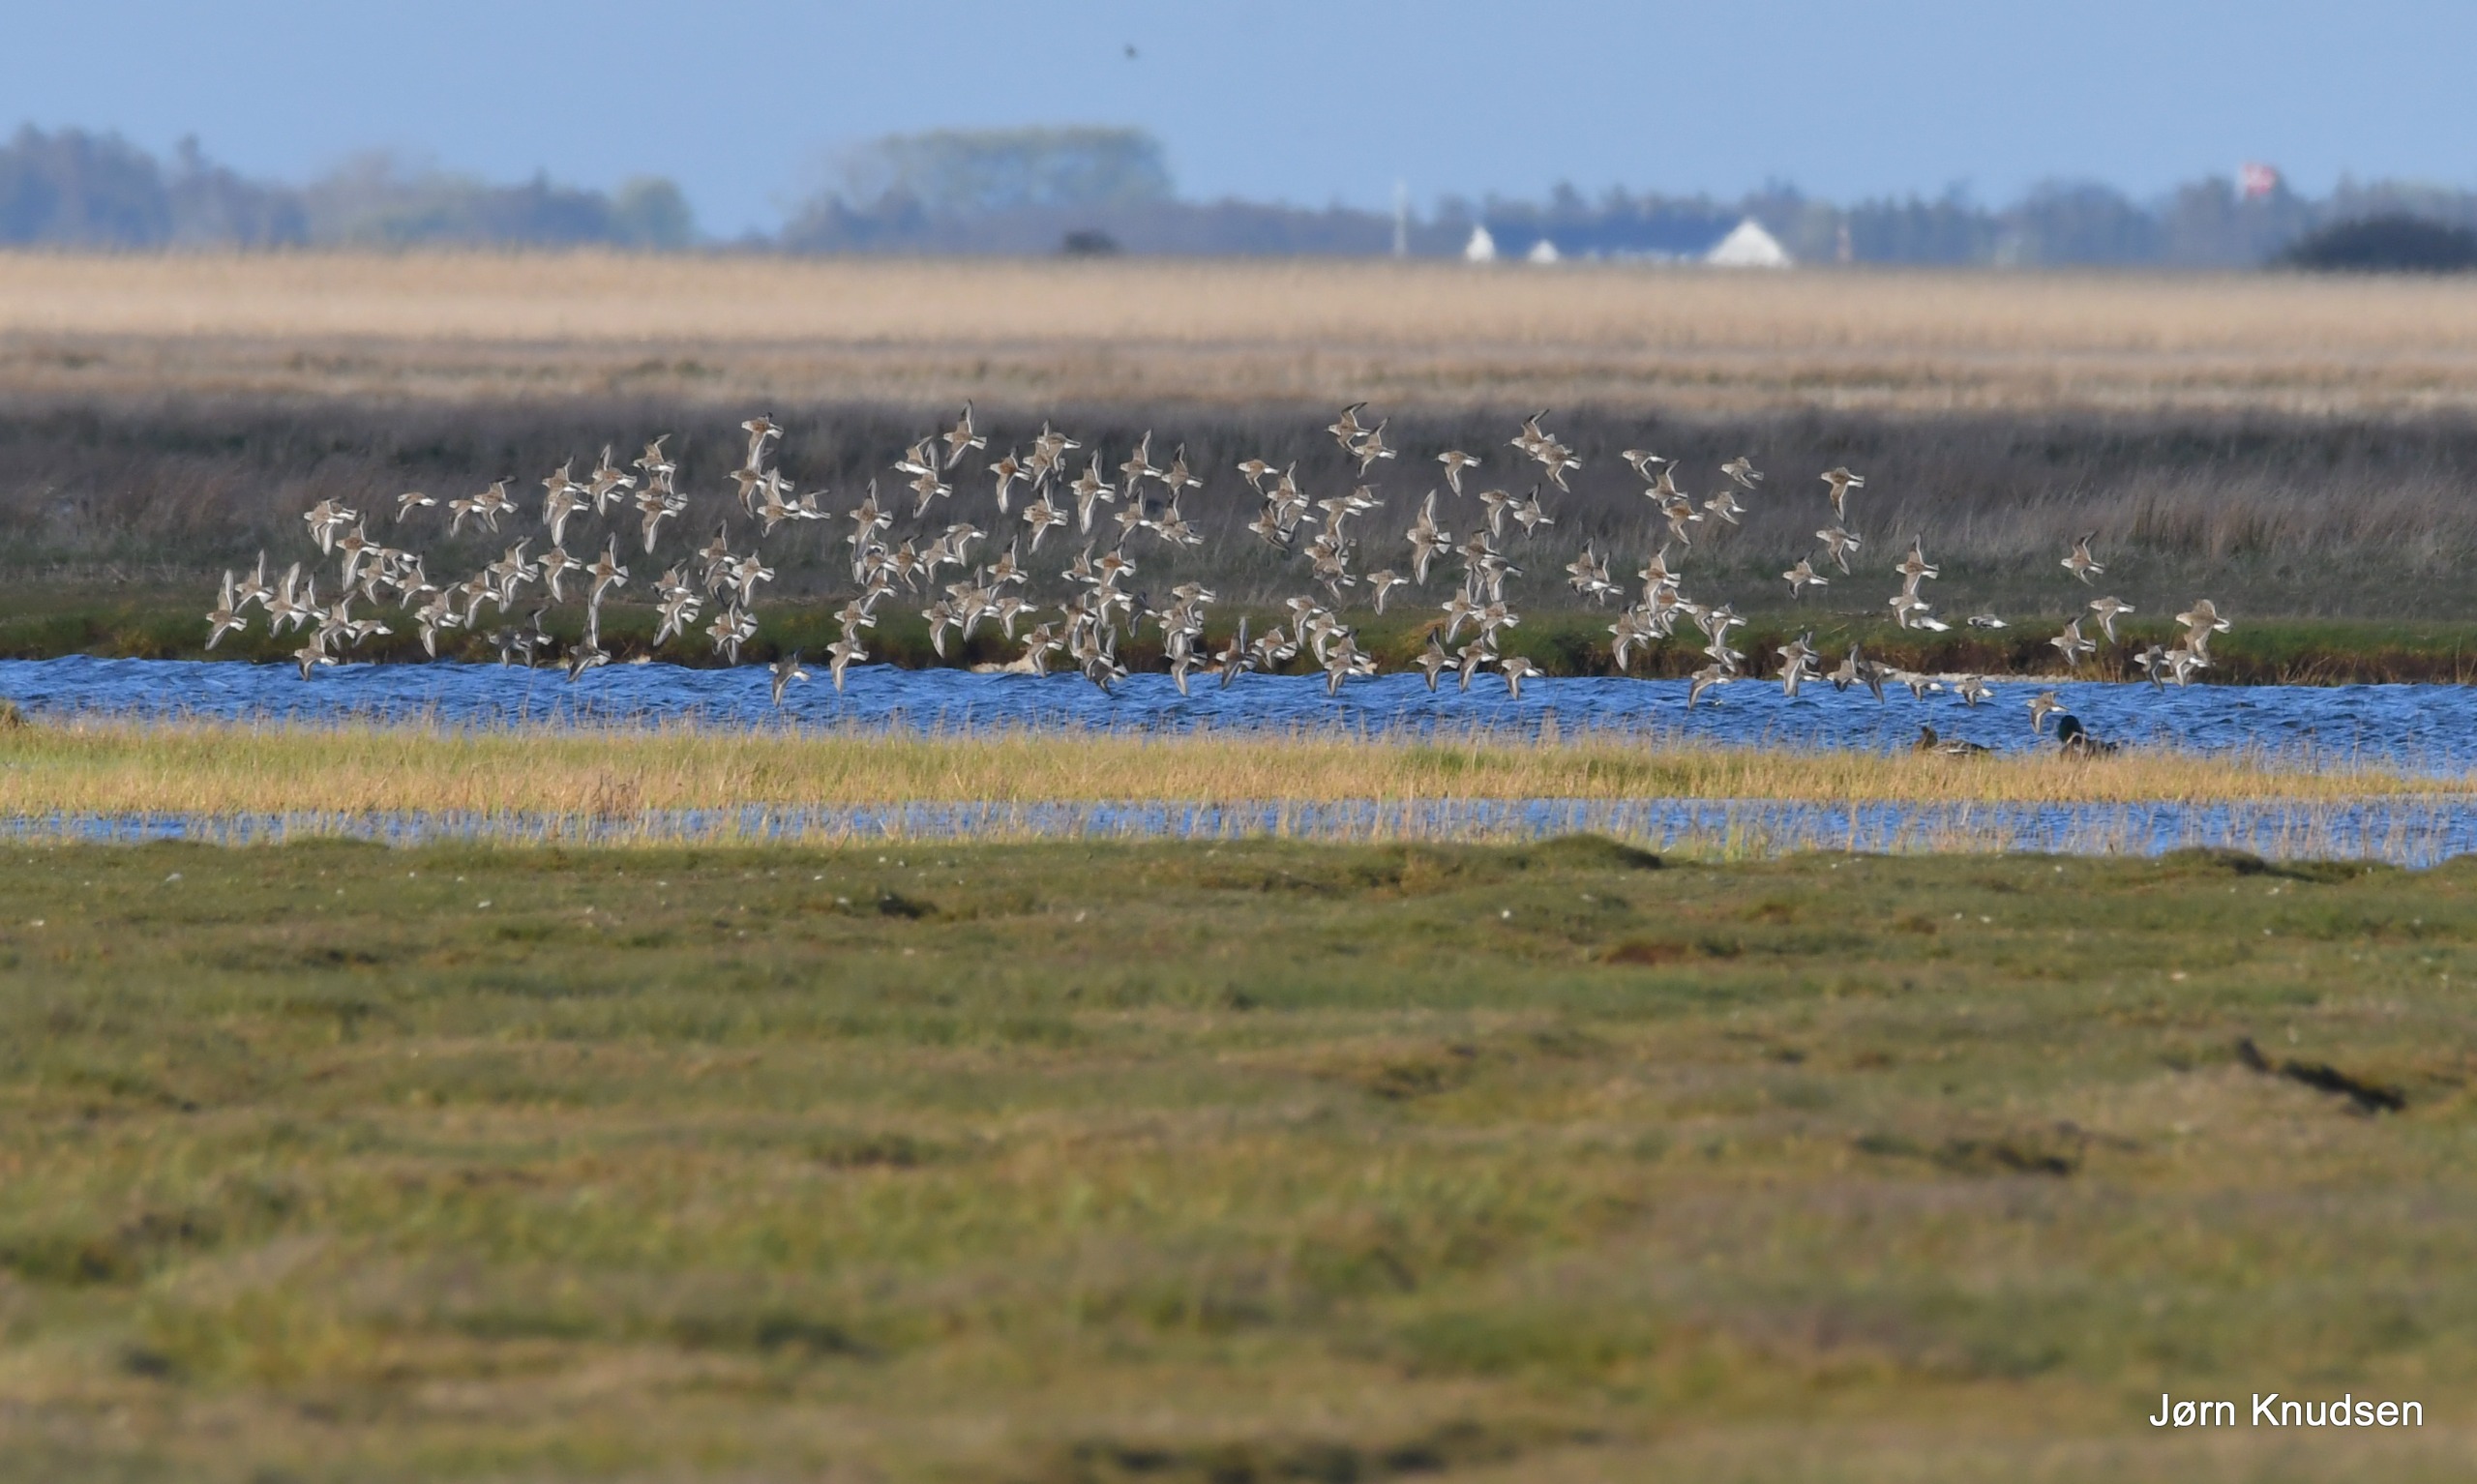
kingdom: Animalia
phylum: Chordata
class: Aves
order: Charadriiformes
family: Scolopacidae
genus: Calidris
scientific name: Calidris alpina
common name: Almindelig ryle
